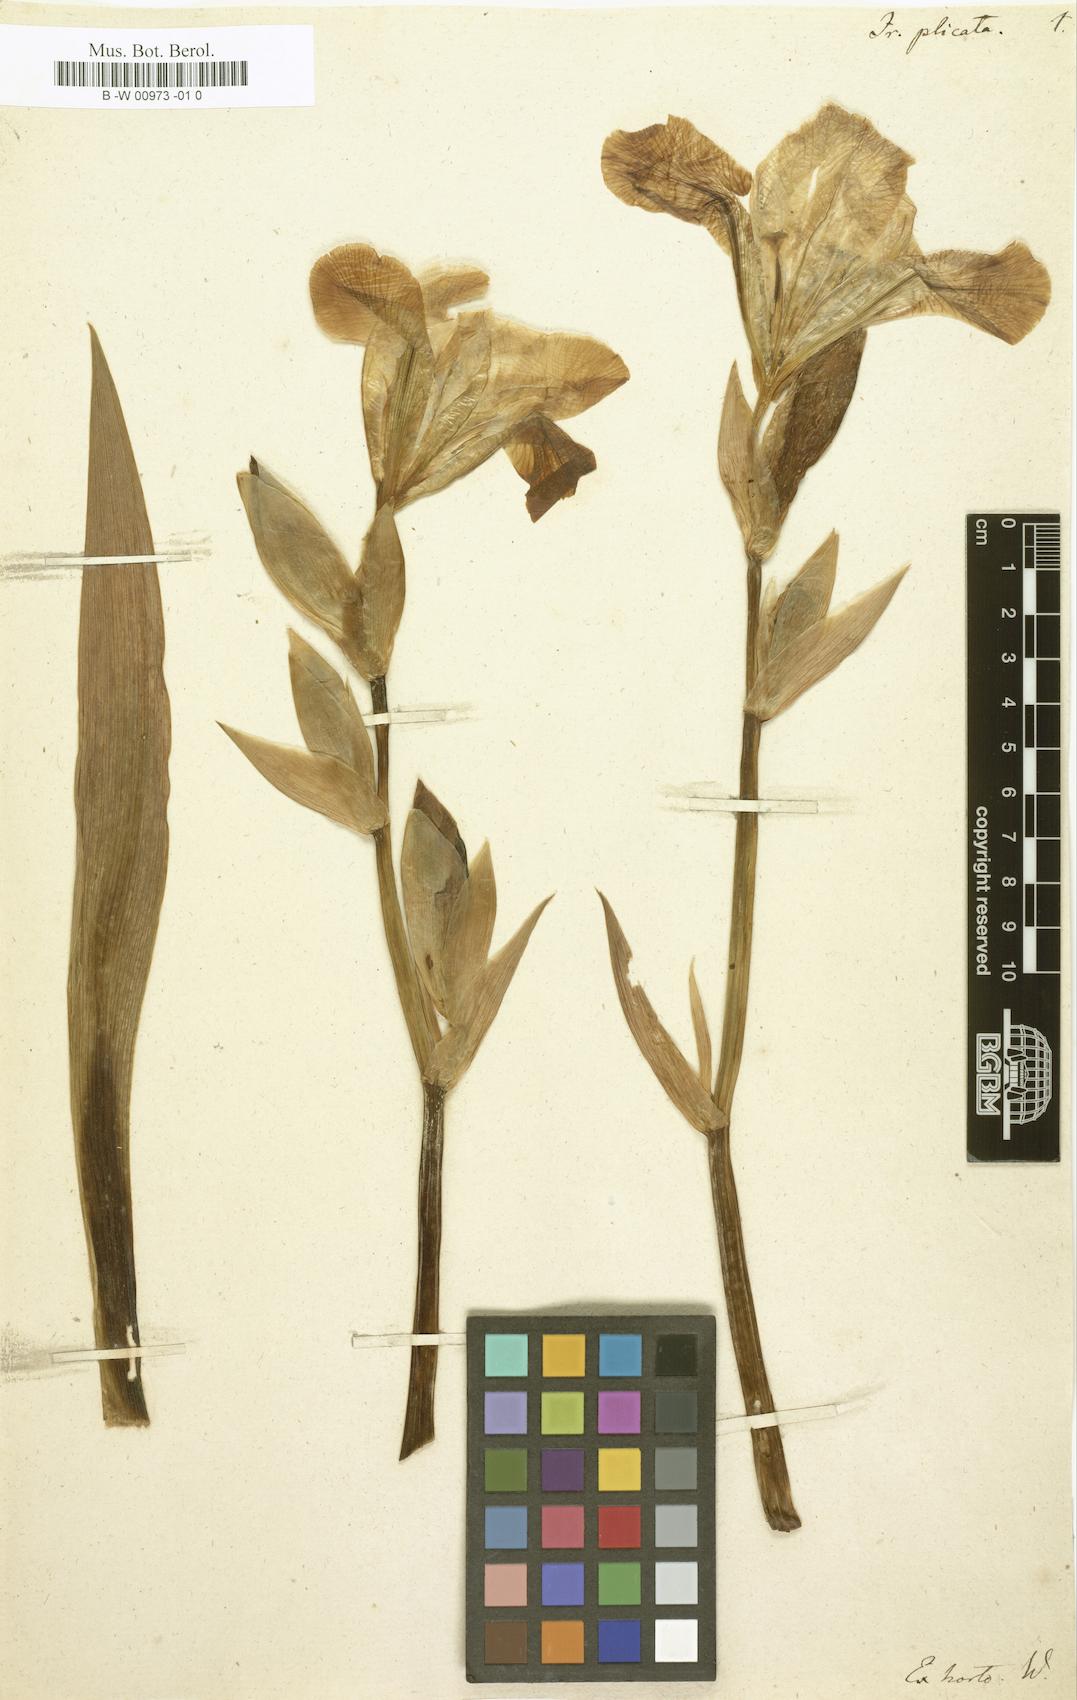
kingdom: Plantae
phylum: Tracheophyta
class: Liliopsida
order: Asparagales
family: Iridaceae
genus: Iris
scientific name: Iris pallida
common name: Sweet iris
